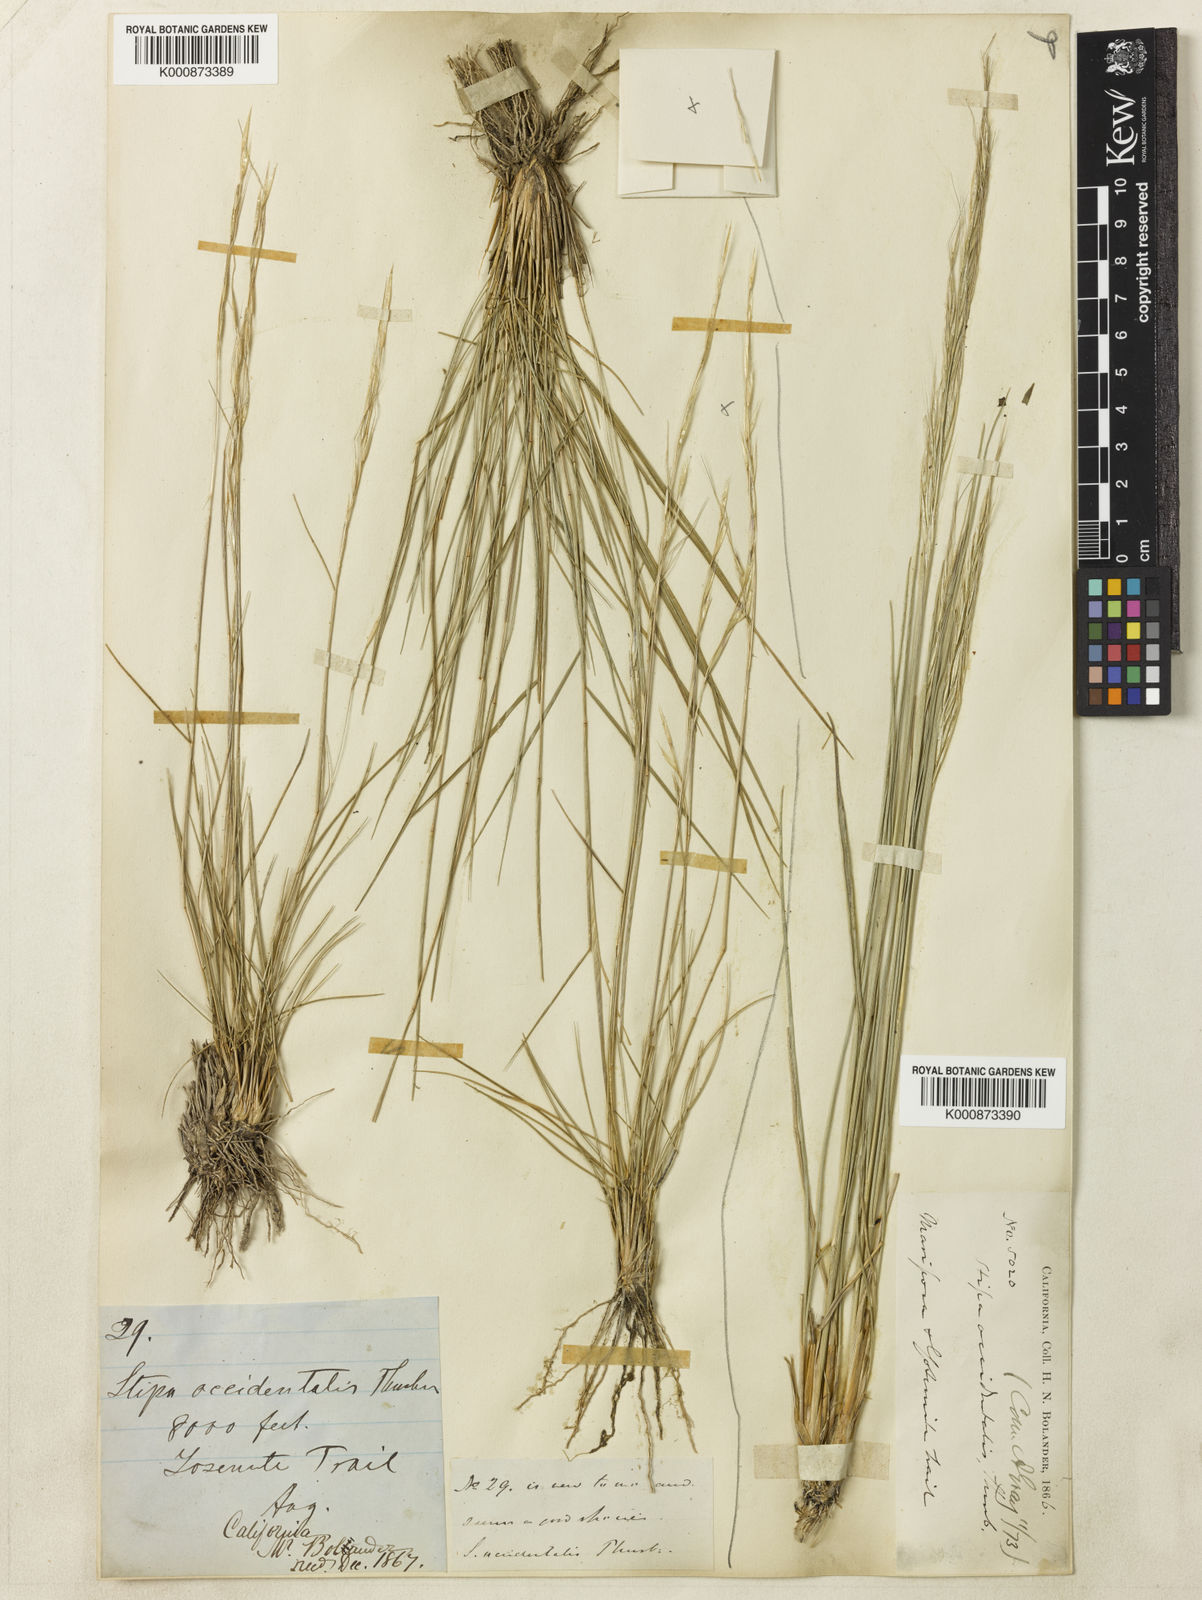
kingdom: Plantae
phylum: Tracheophyta
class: Liliopsida
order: Poales
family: Poaceae
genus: Eriocoma
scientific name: Eriocoma thurberiana
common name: Thurber's needlegrass
